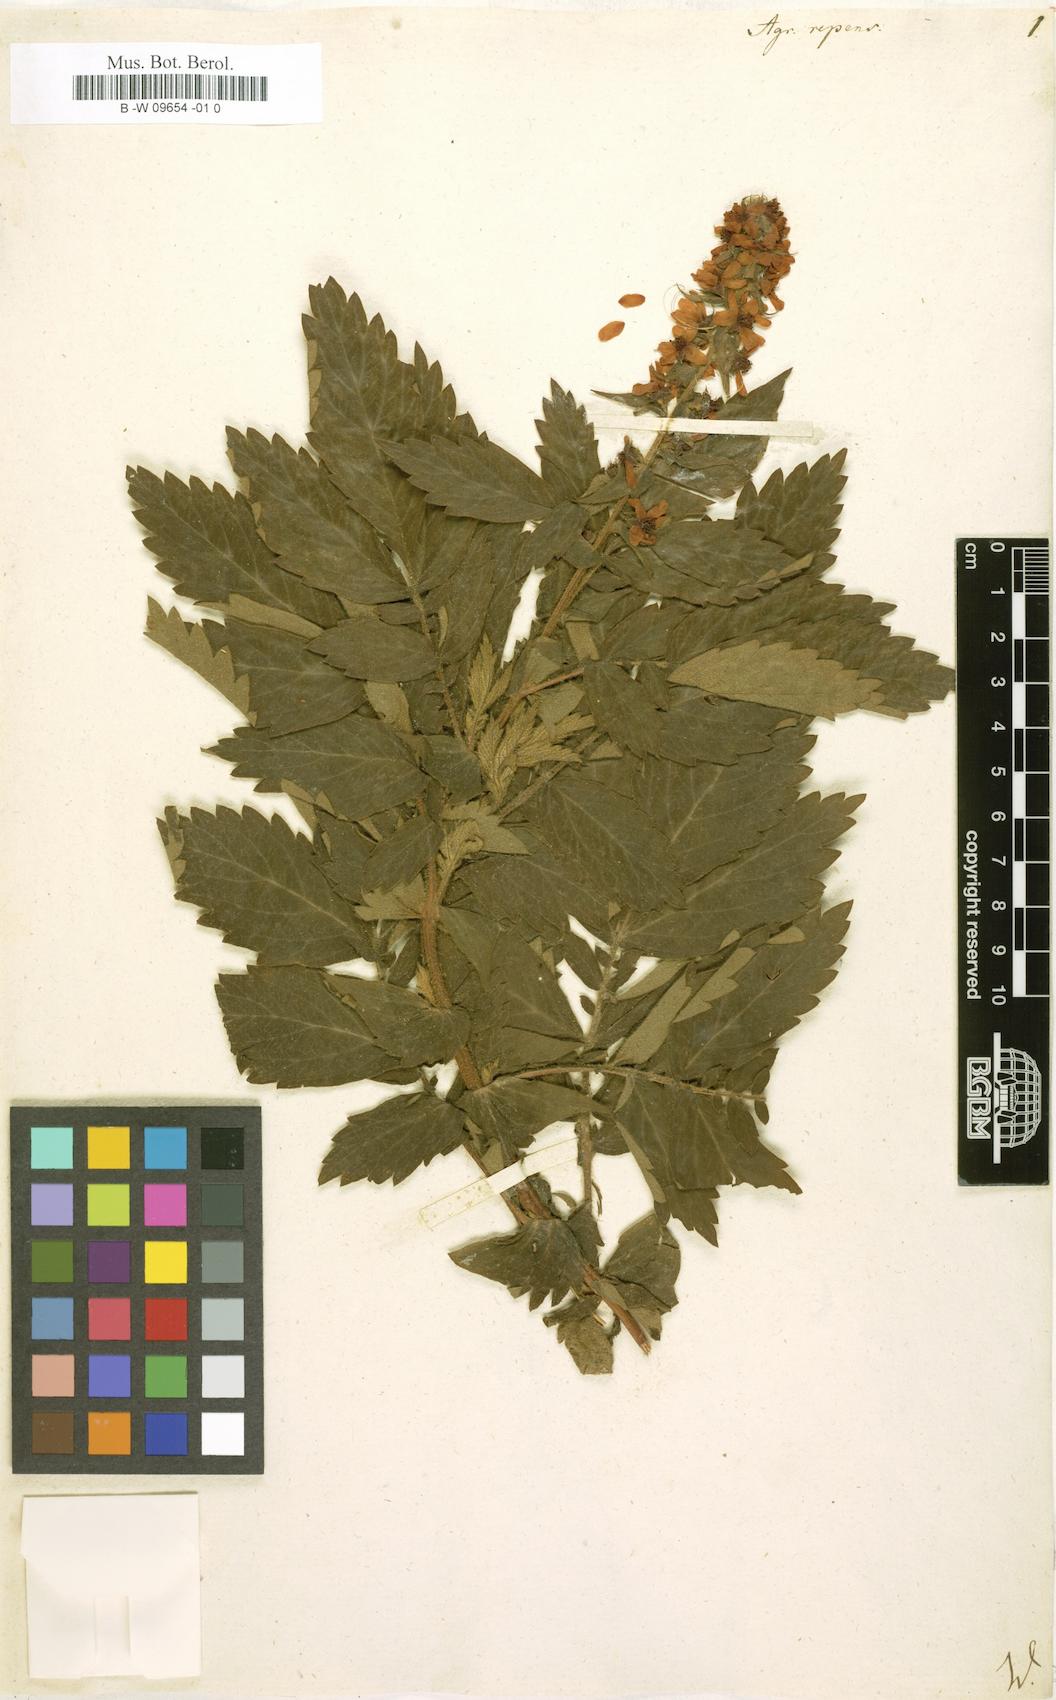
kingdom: Plantae
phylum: Tracheophyta
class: Magnoliopsida
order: Rosales
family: Rosaceae
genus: Agrimonia
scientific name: Agrimonia repens
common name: Creeping agrimony
